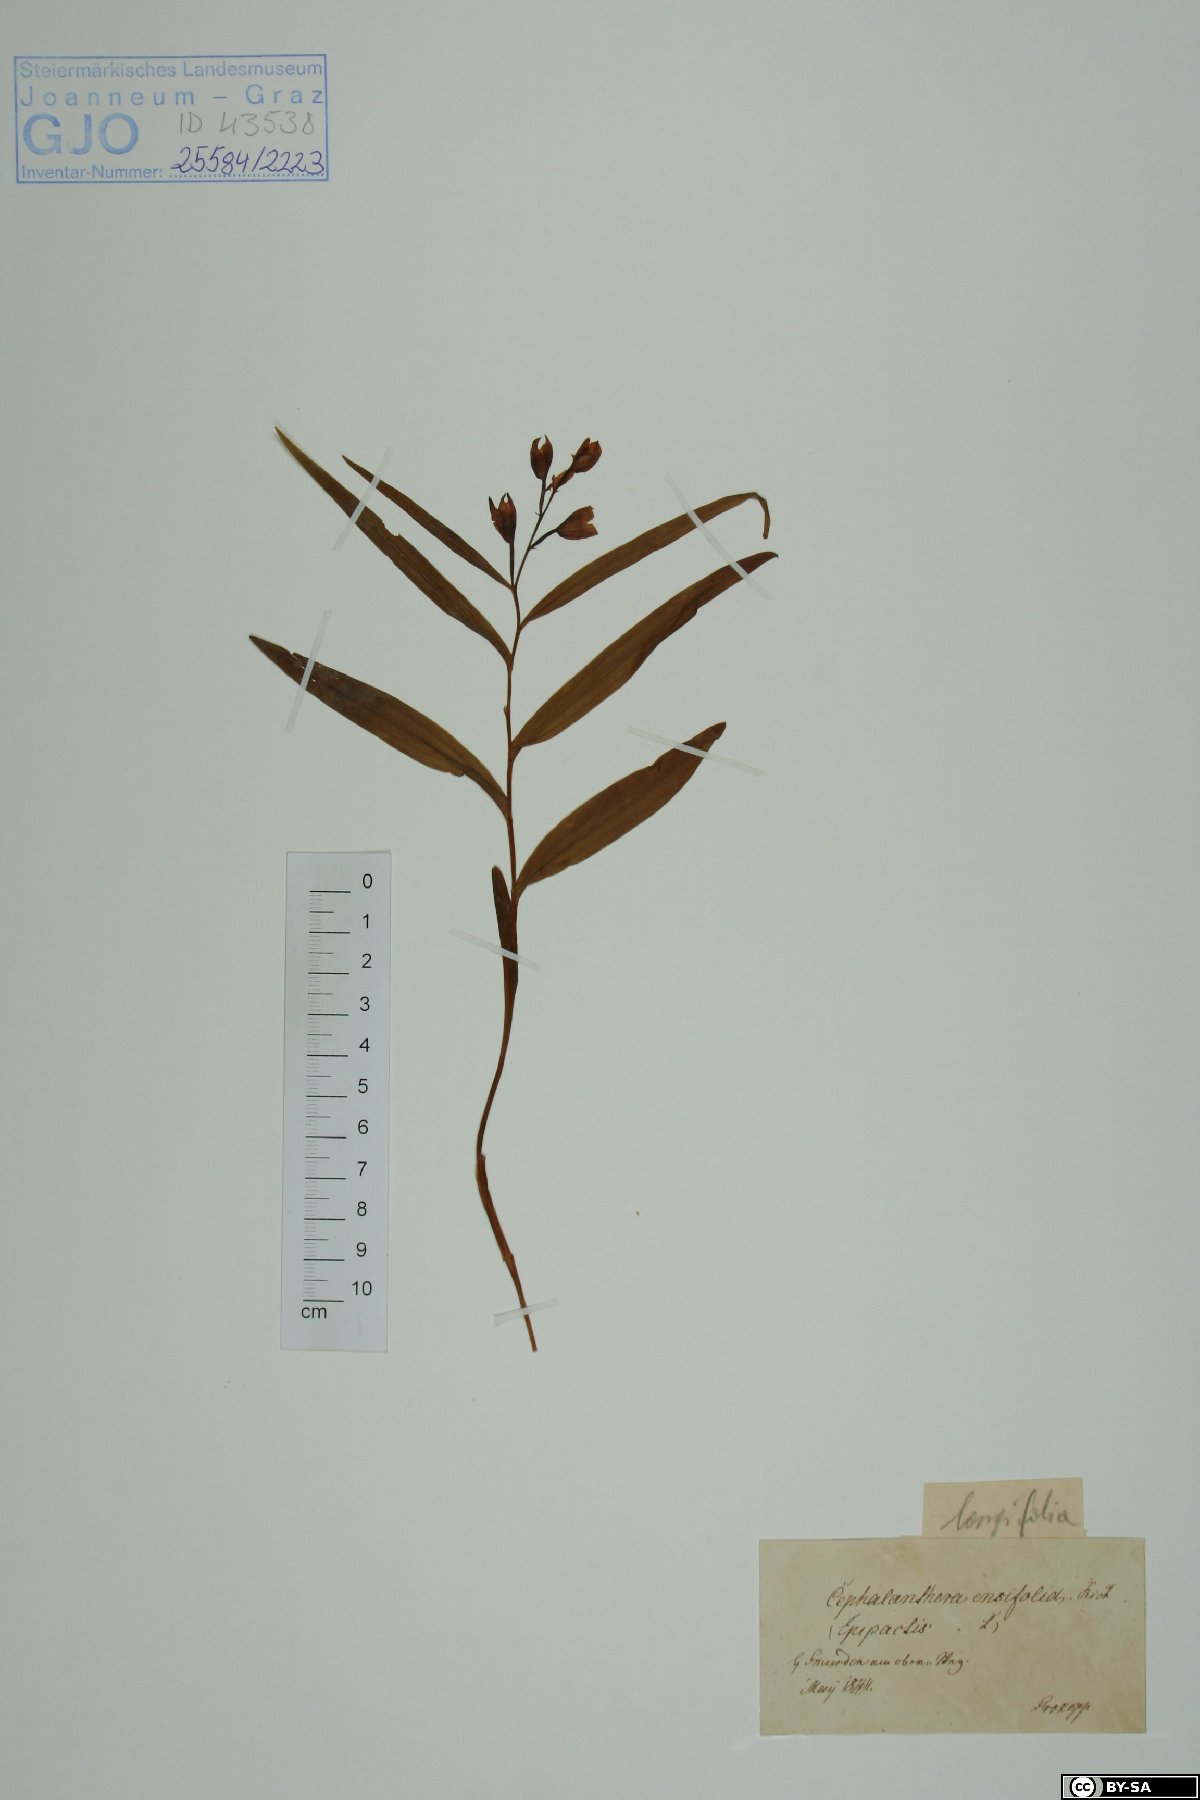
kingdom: Plantae
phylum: Tracheophyta
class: Liliopsida
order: Asparagales
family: Orchidaceae
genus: Cephalanthera
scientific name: Cephalanthera longifolia
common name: Narrow-leaved helleborine
